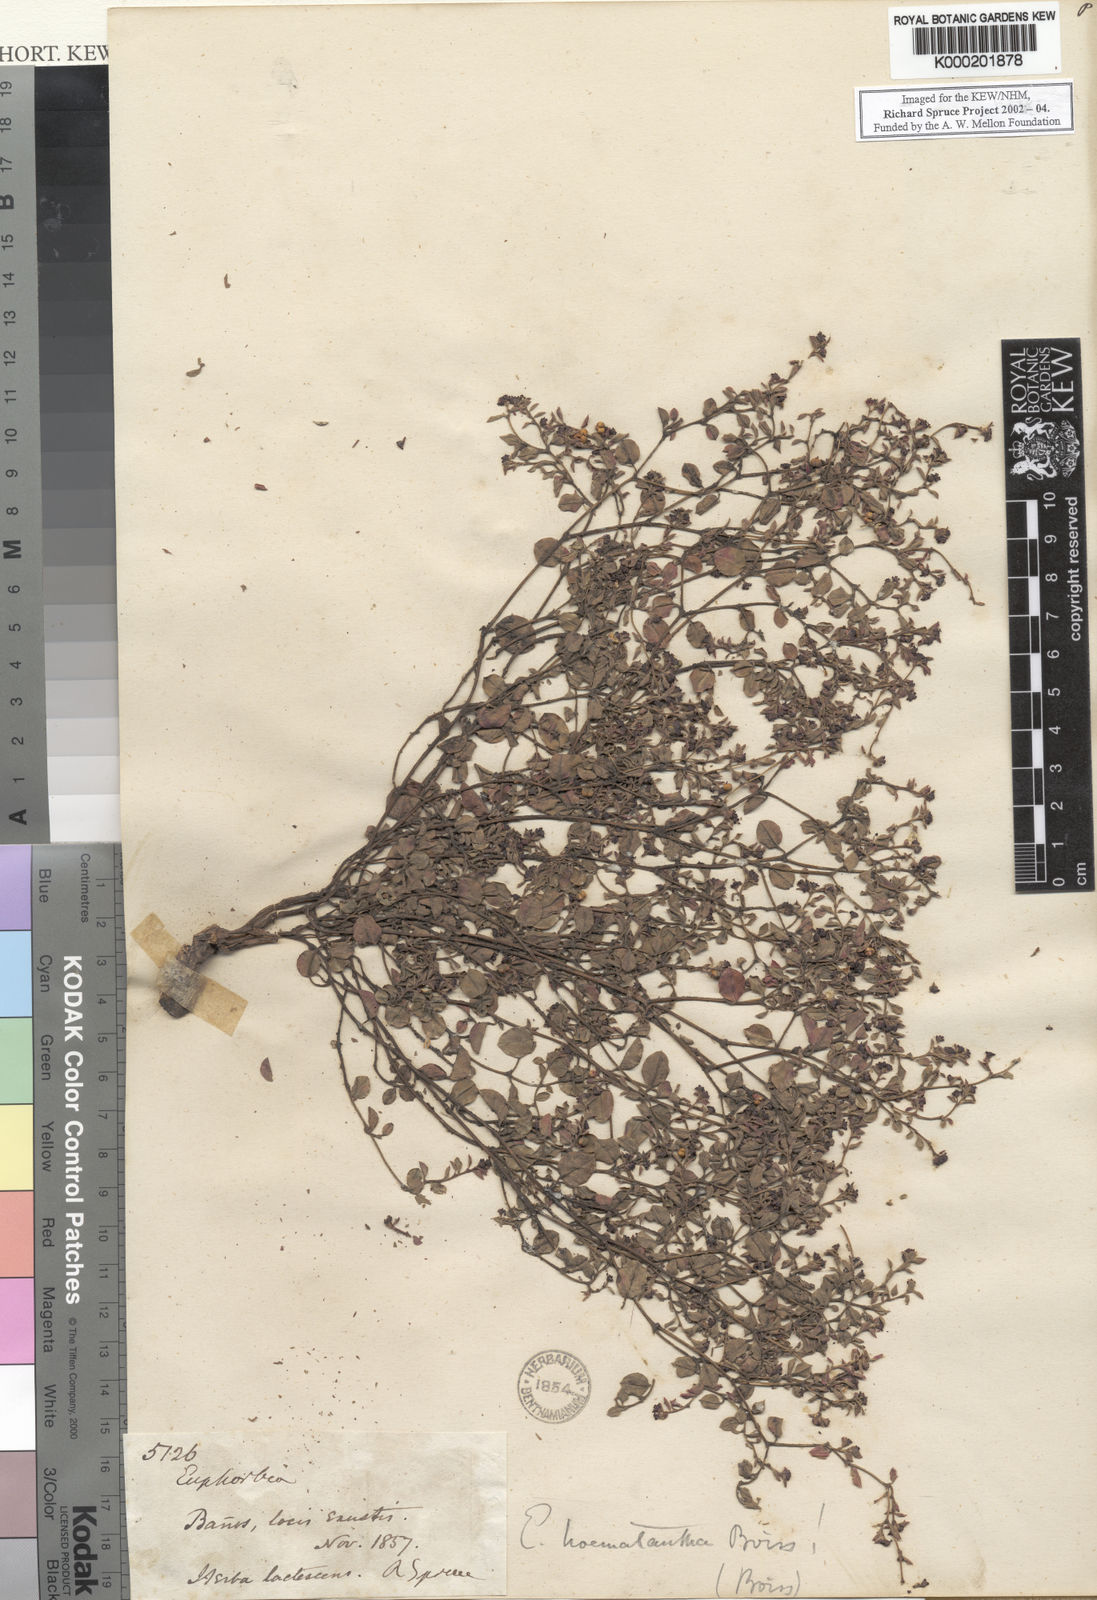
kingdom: Plantae
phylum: Tracheophyta
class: Magnoliopsida
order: Malpighiales
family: Euphorbiaceae
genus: Euphorbia
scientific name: Euphorbia haematantha
